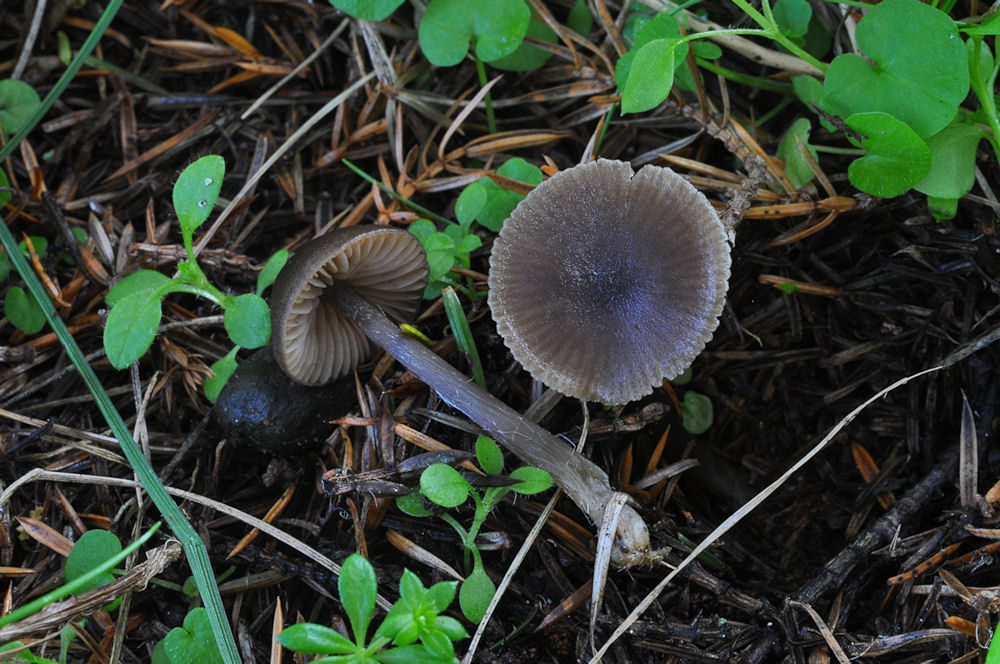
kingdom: Fungi
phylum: Basidiomycota
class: Agaricomycetes
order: Agaricales
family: Entolomataceae
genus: Entoloma
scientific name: Entoloma
